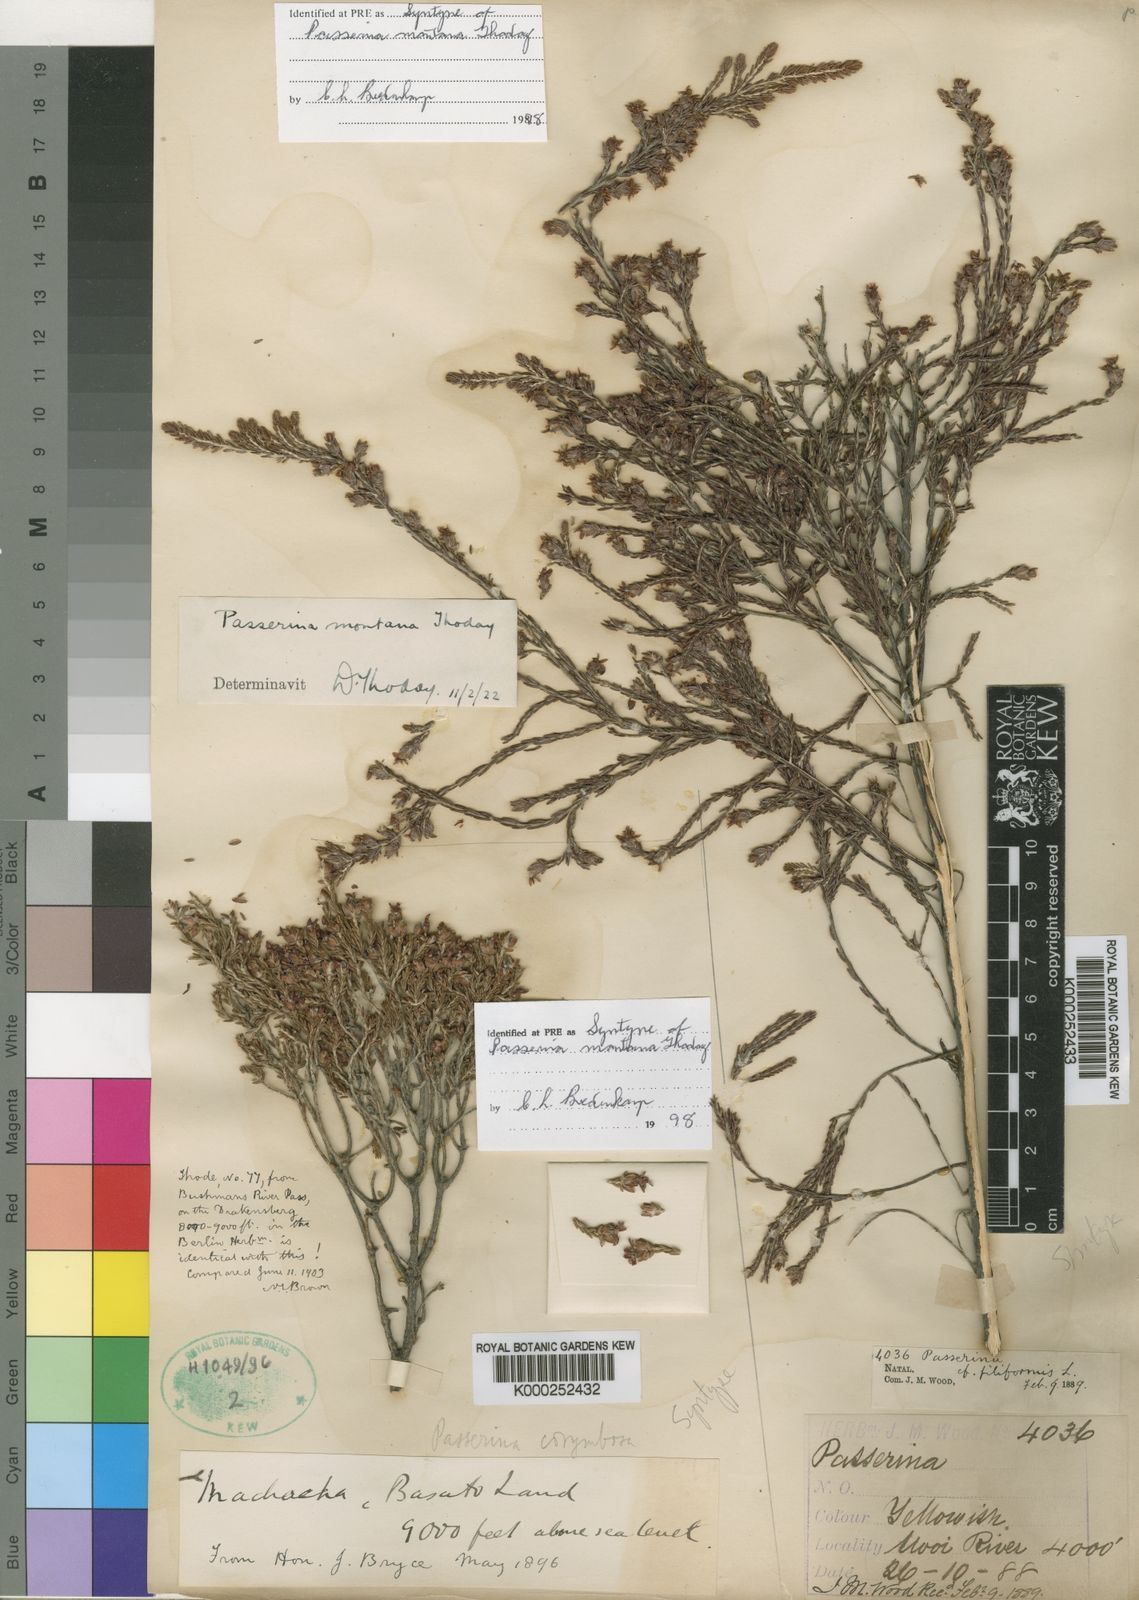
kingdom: Plantae
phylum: Tracheophyta
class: Magnoliopsida
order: Malvales
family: Thymelaeaceae
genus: Passerina
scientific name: Passerina montana
